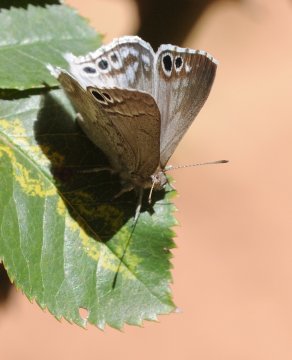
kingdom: Animalia
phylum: Arthropoda
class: Insecta
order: Lepidoptera
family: Lycaenidae
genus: Leptomyrina
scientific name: Leptomyrina gorgias
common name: Common Black-eye
